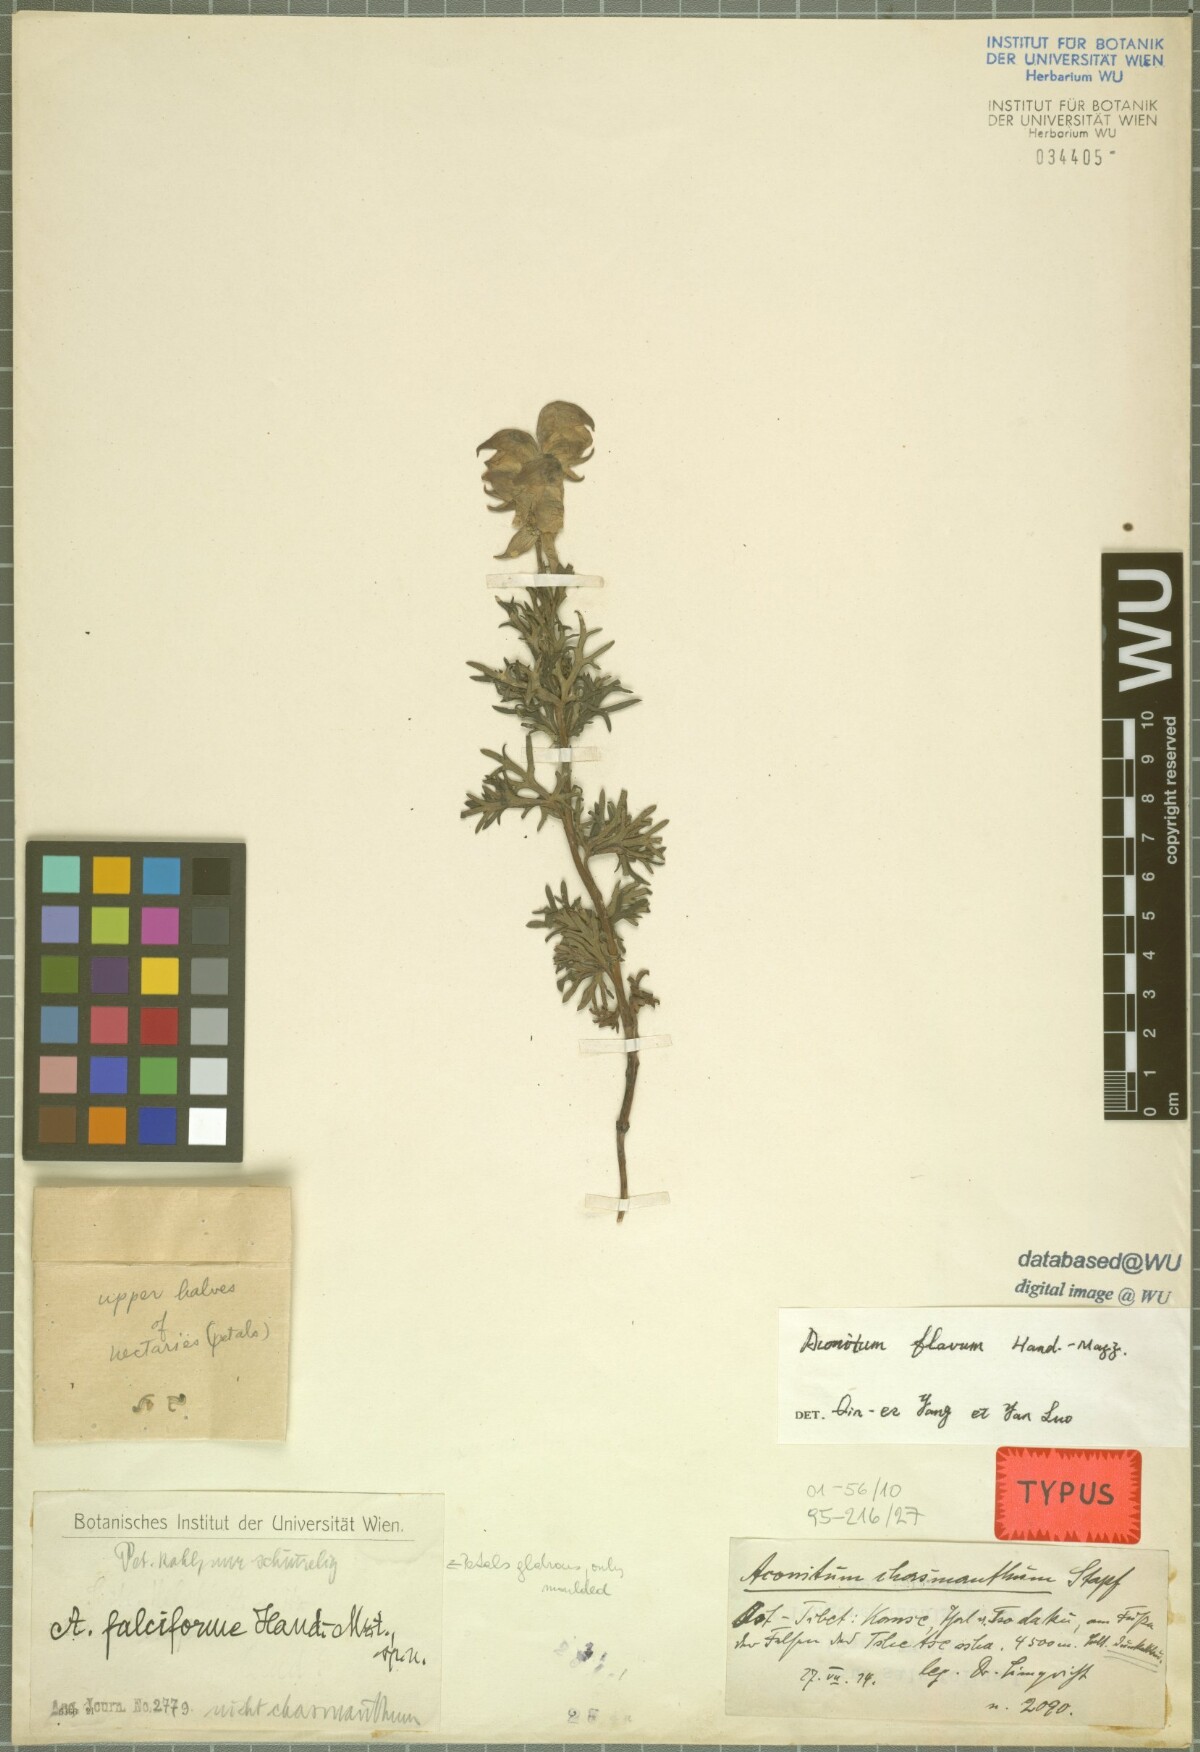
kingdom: Plantae
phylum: Tracheophyta
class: Magnoliopsida
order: Ranunculales
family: Ranunculaceae
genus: Aconitum
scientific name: Aconitum falciforme
